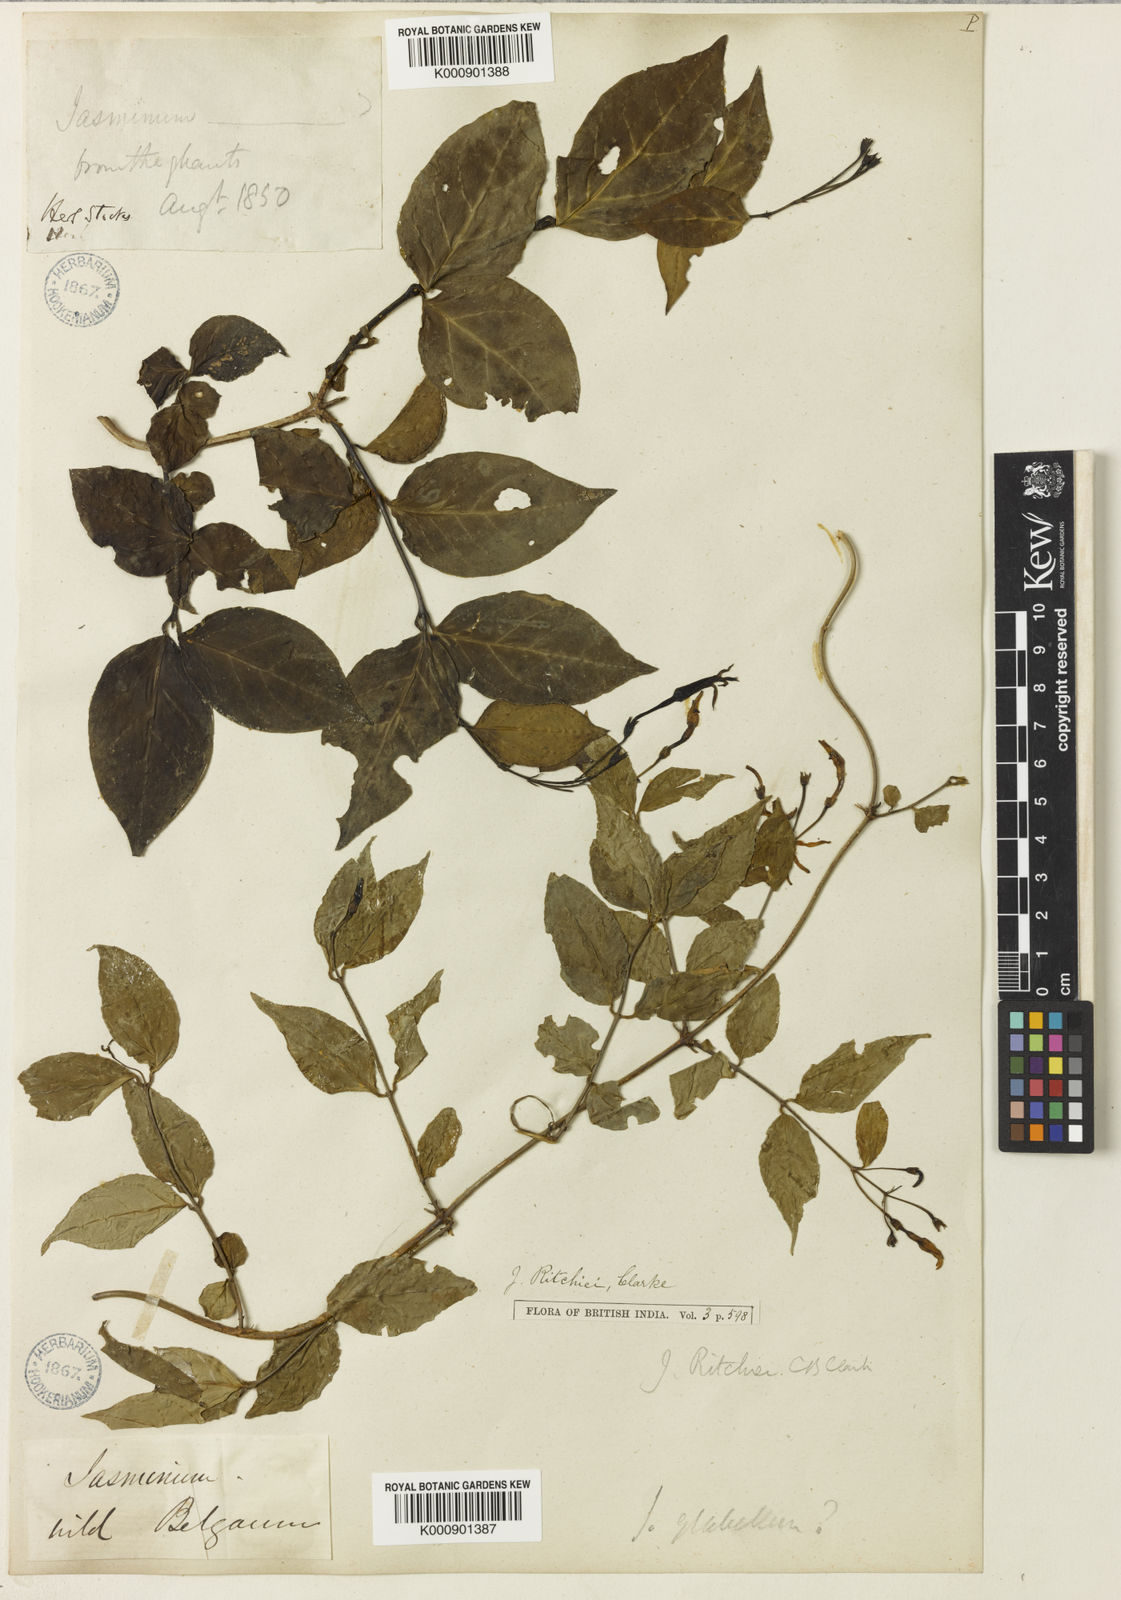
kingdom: Plantae
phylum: Tracheophyta
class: Magnoliopsida
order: Lamiales
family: Oleaceae
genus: Jasminum
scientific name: Jasminum ritchiei
